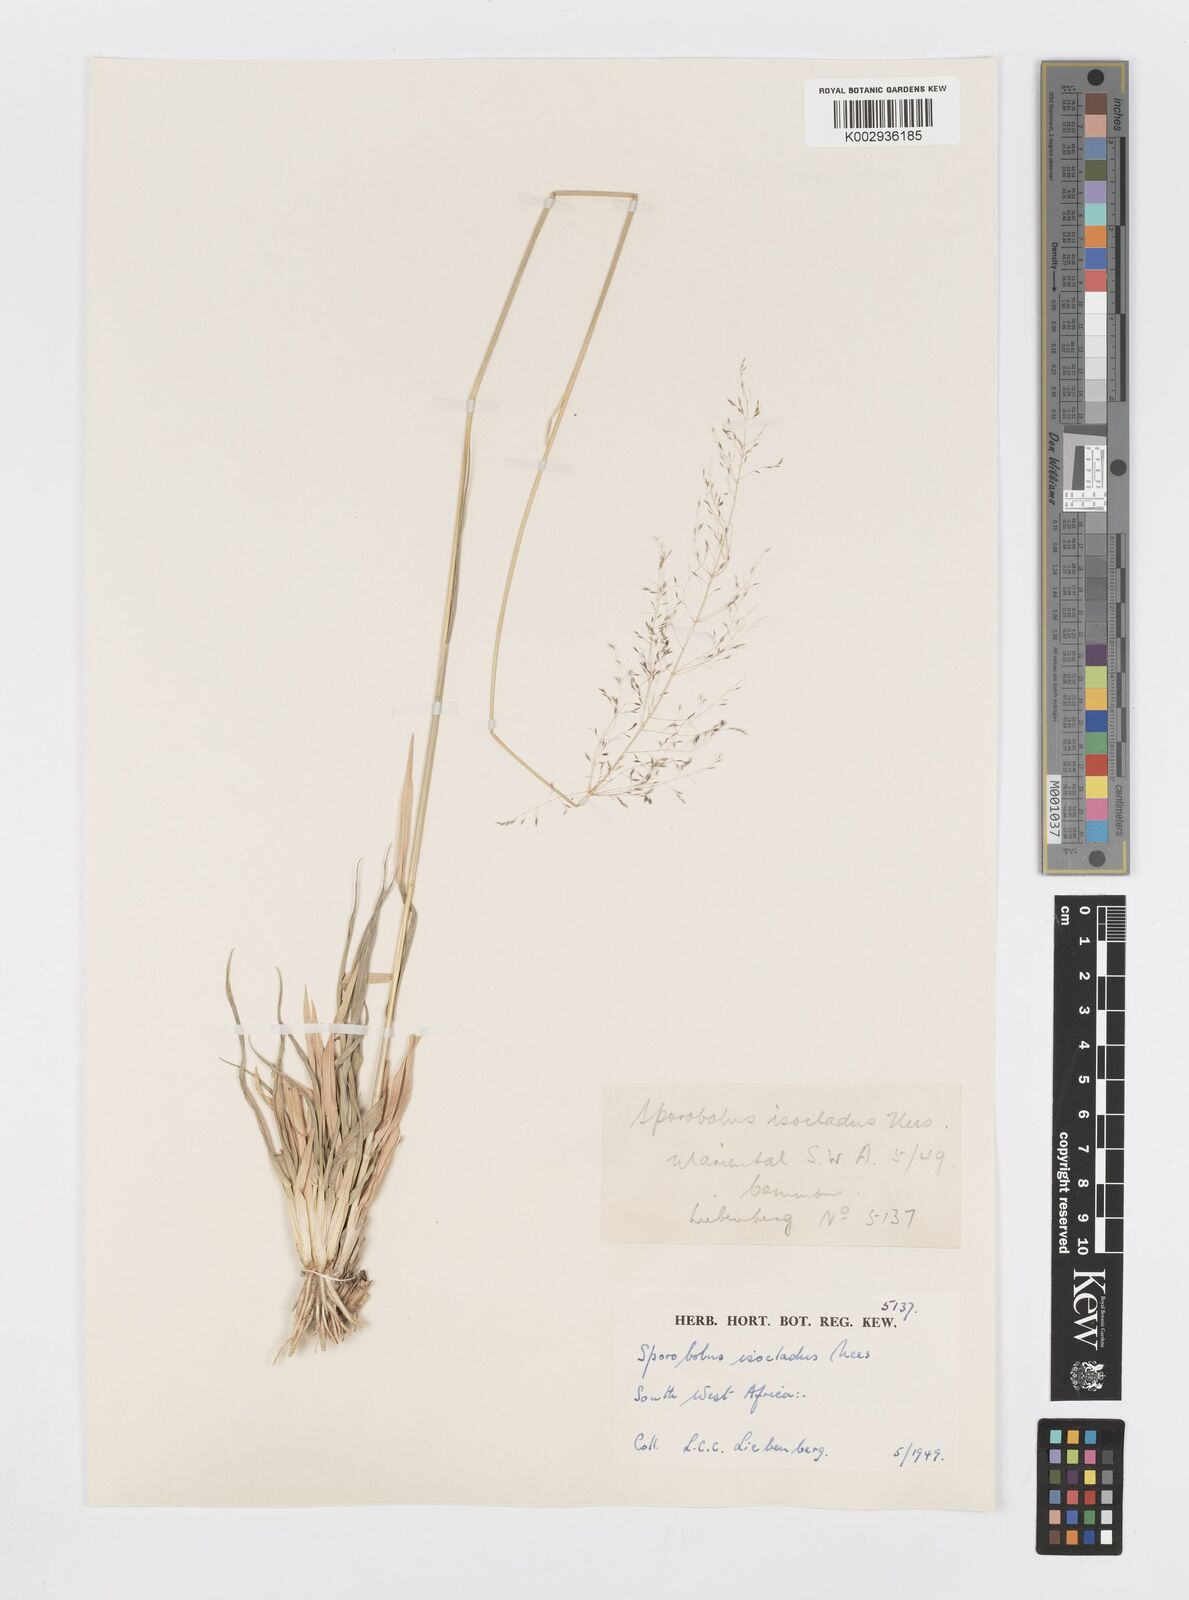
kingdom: Plantae
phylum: Tracheophyta
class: Liliopsida
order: Poales
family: Poaceae
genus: Sporobolus
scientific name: Sporobolus ioclados
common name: Pan dropseed
